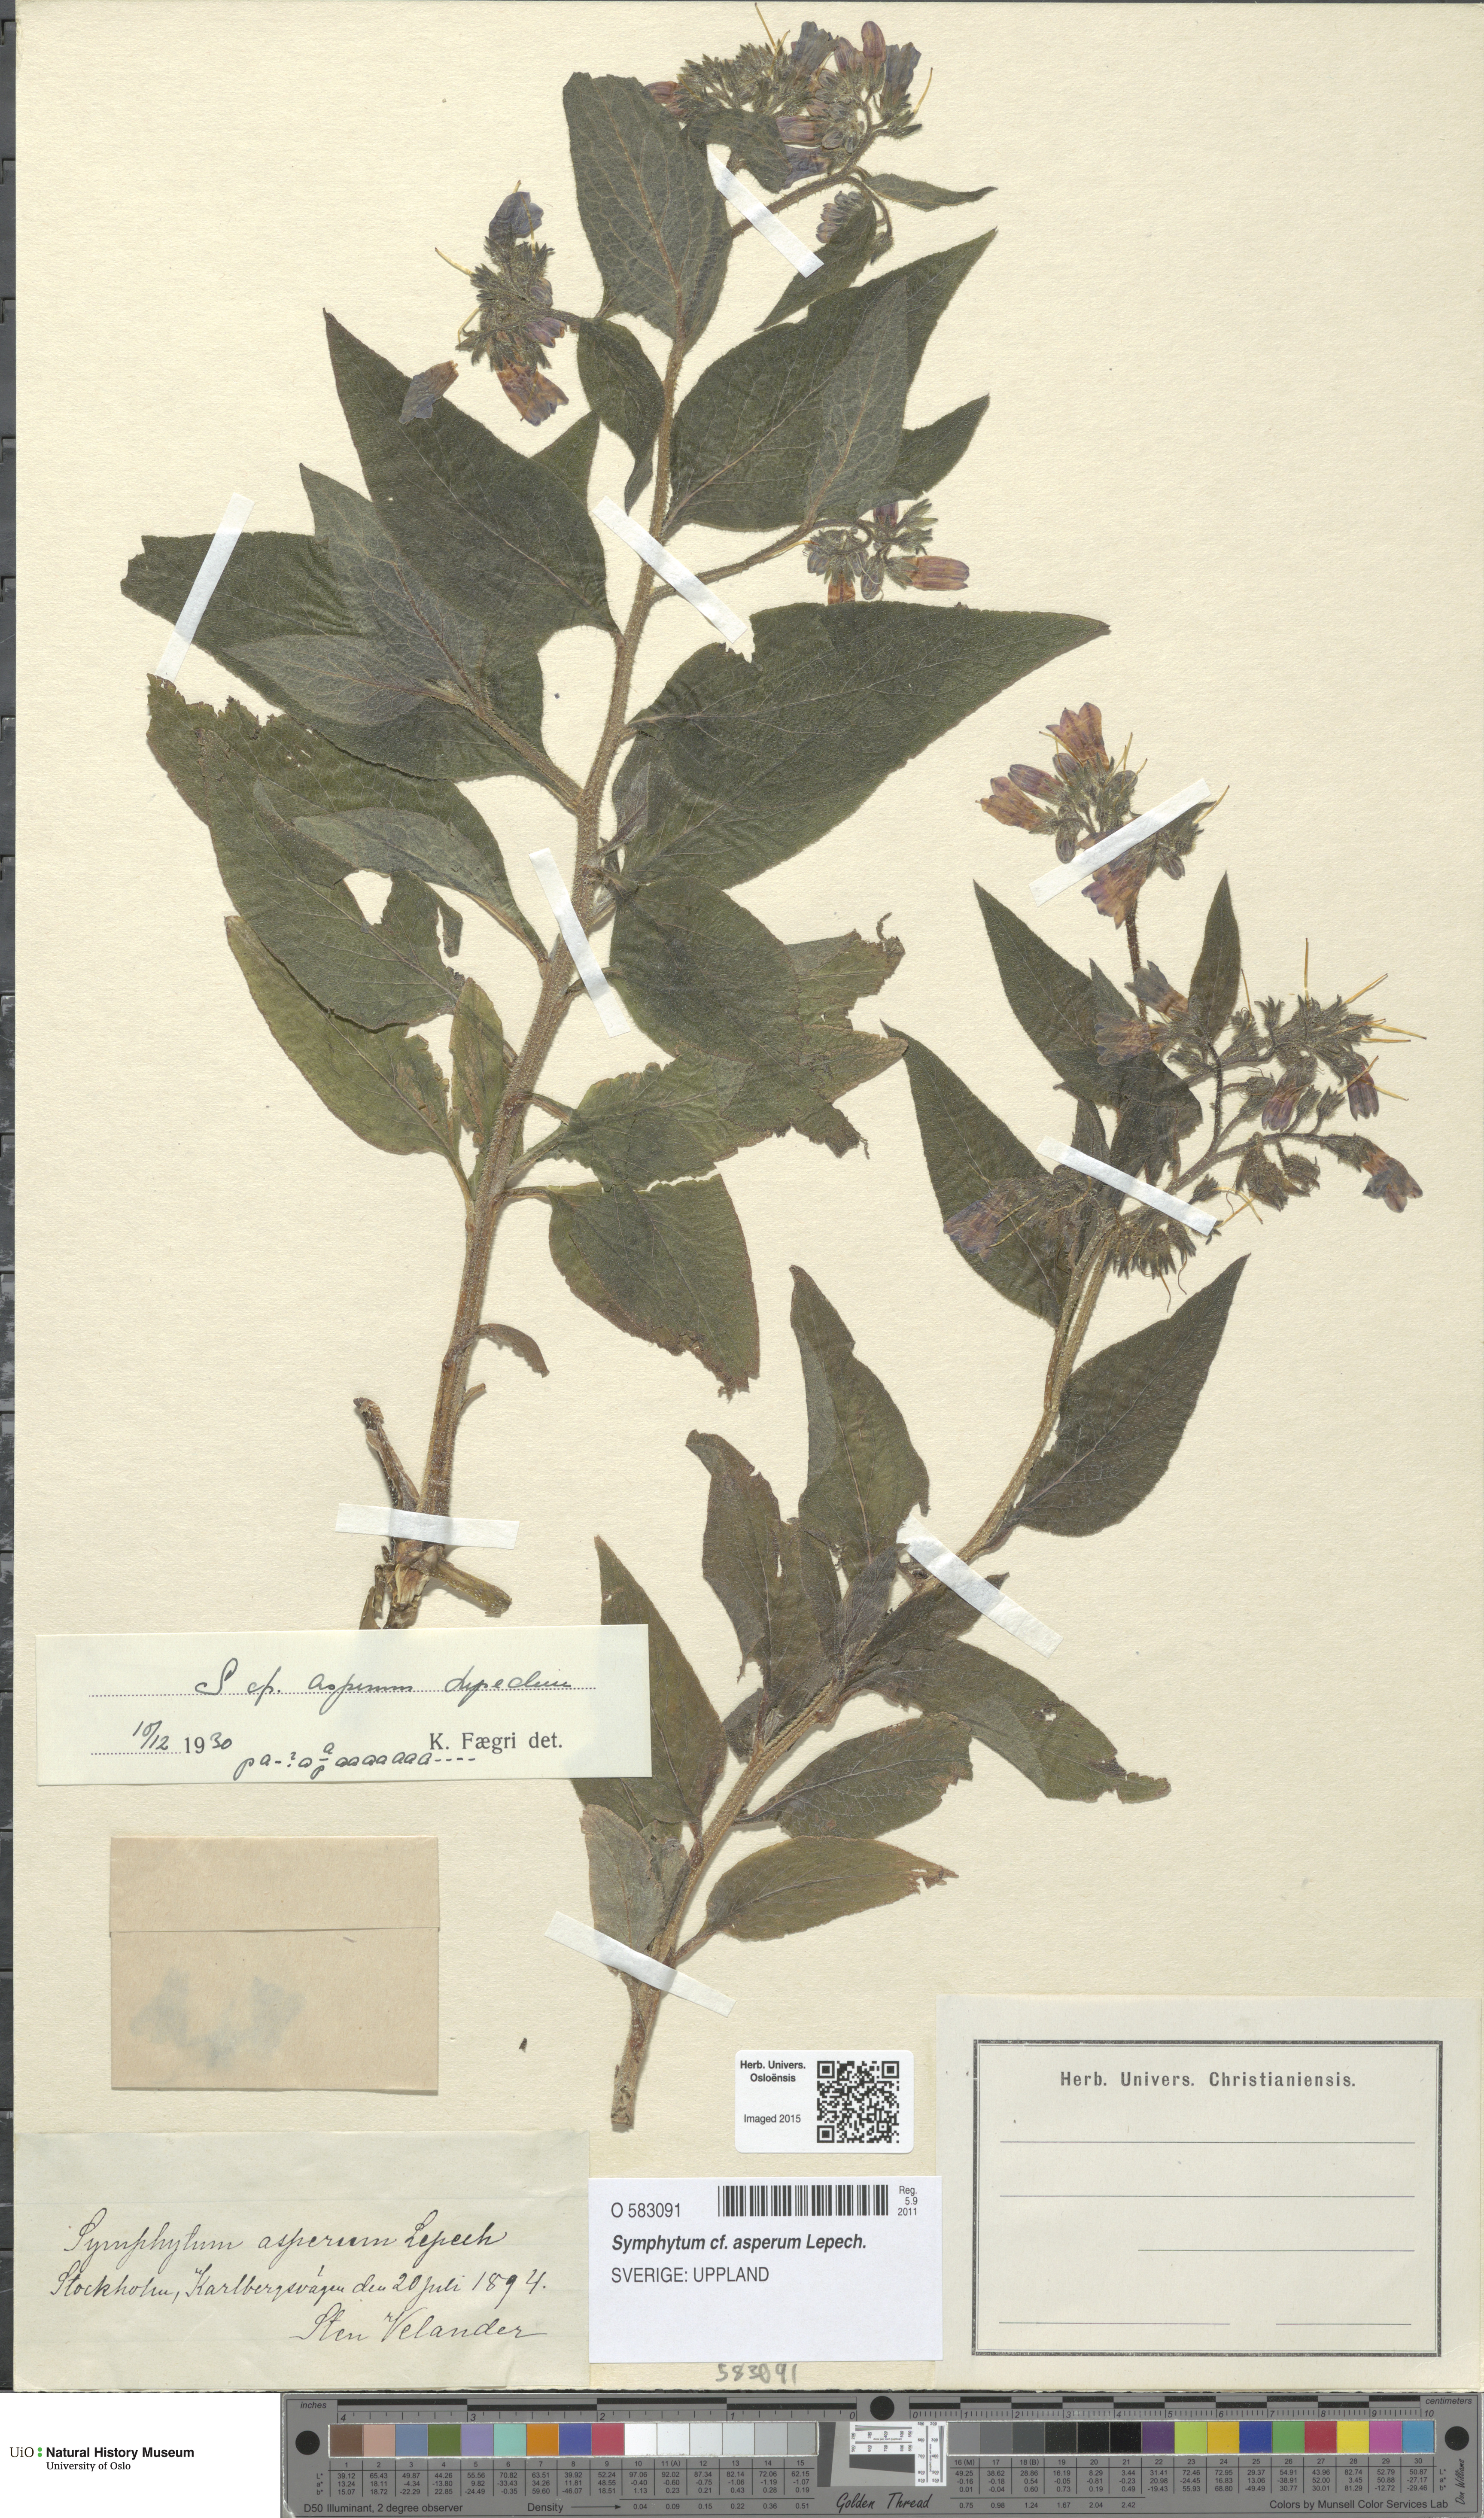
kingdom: Plantae
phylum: Tracheophyta
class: Magnoliopsida
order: Boraginales
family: Boraginaceae
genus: Symphytum
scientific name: Symphytum asperum
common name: Prickly comfrey
